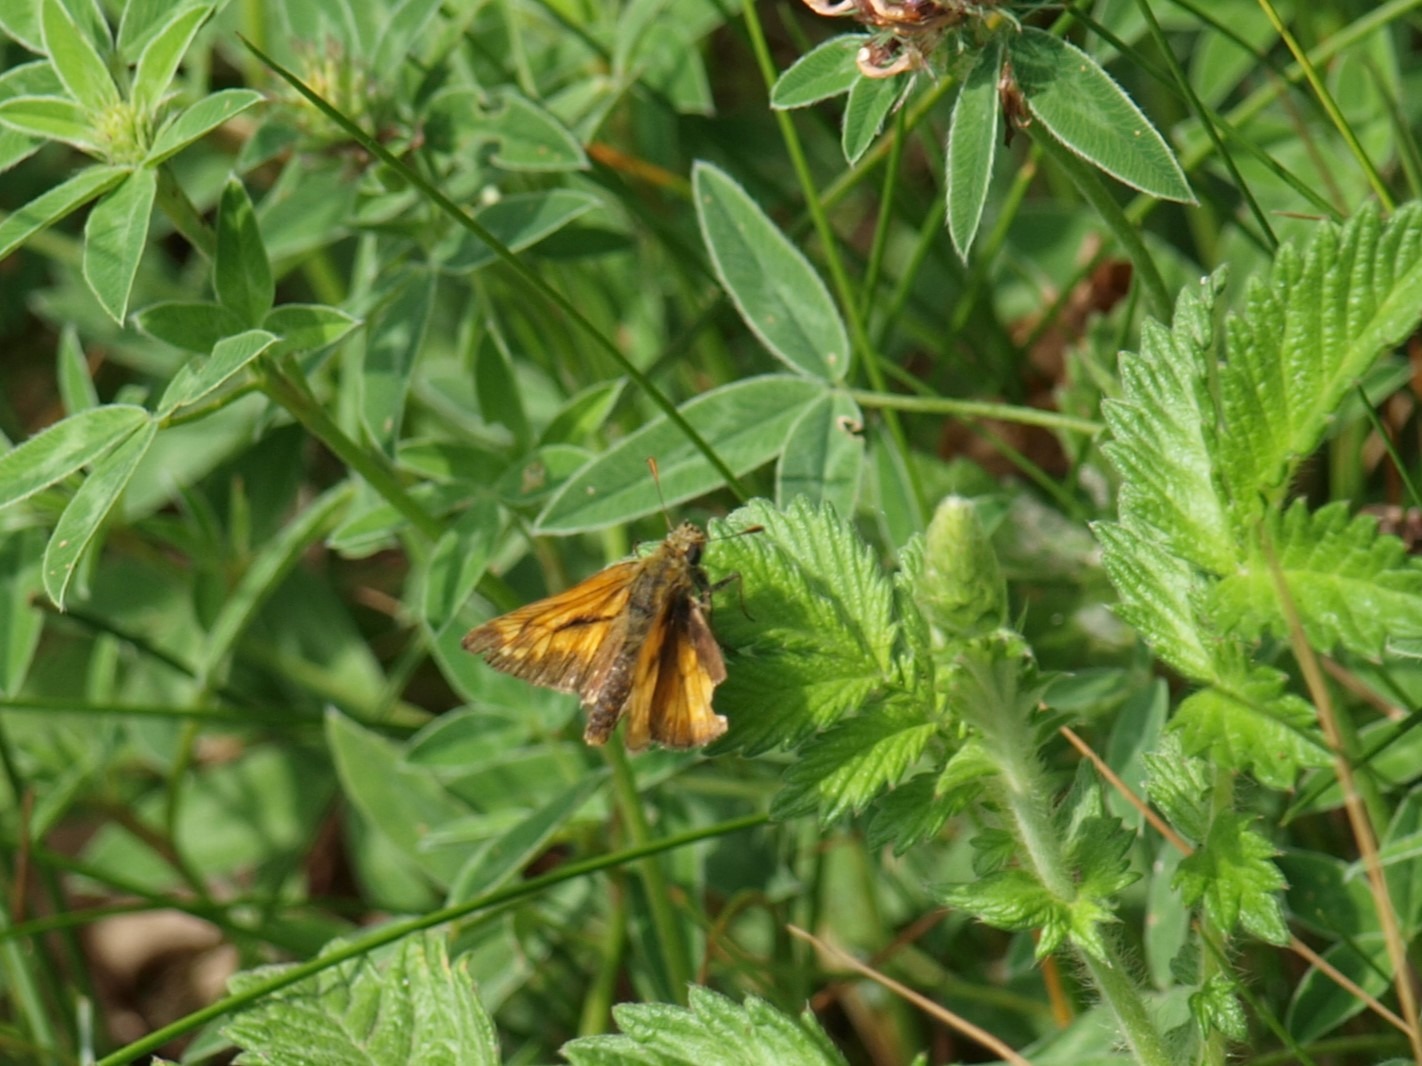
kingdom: Animalia
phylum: Arthropoda
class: Insecta
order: Lepidoptera
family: Hesperiidae
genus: Ochlodes
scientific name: Ochlodes venata
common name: Stor bredpande
